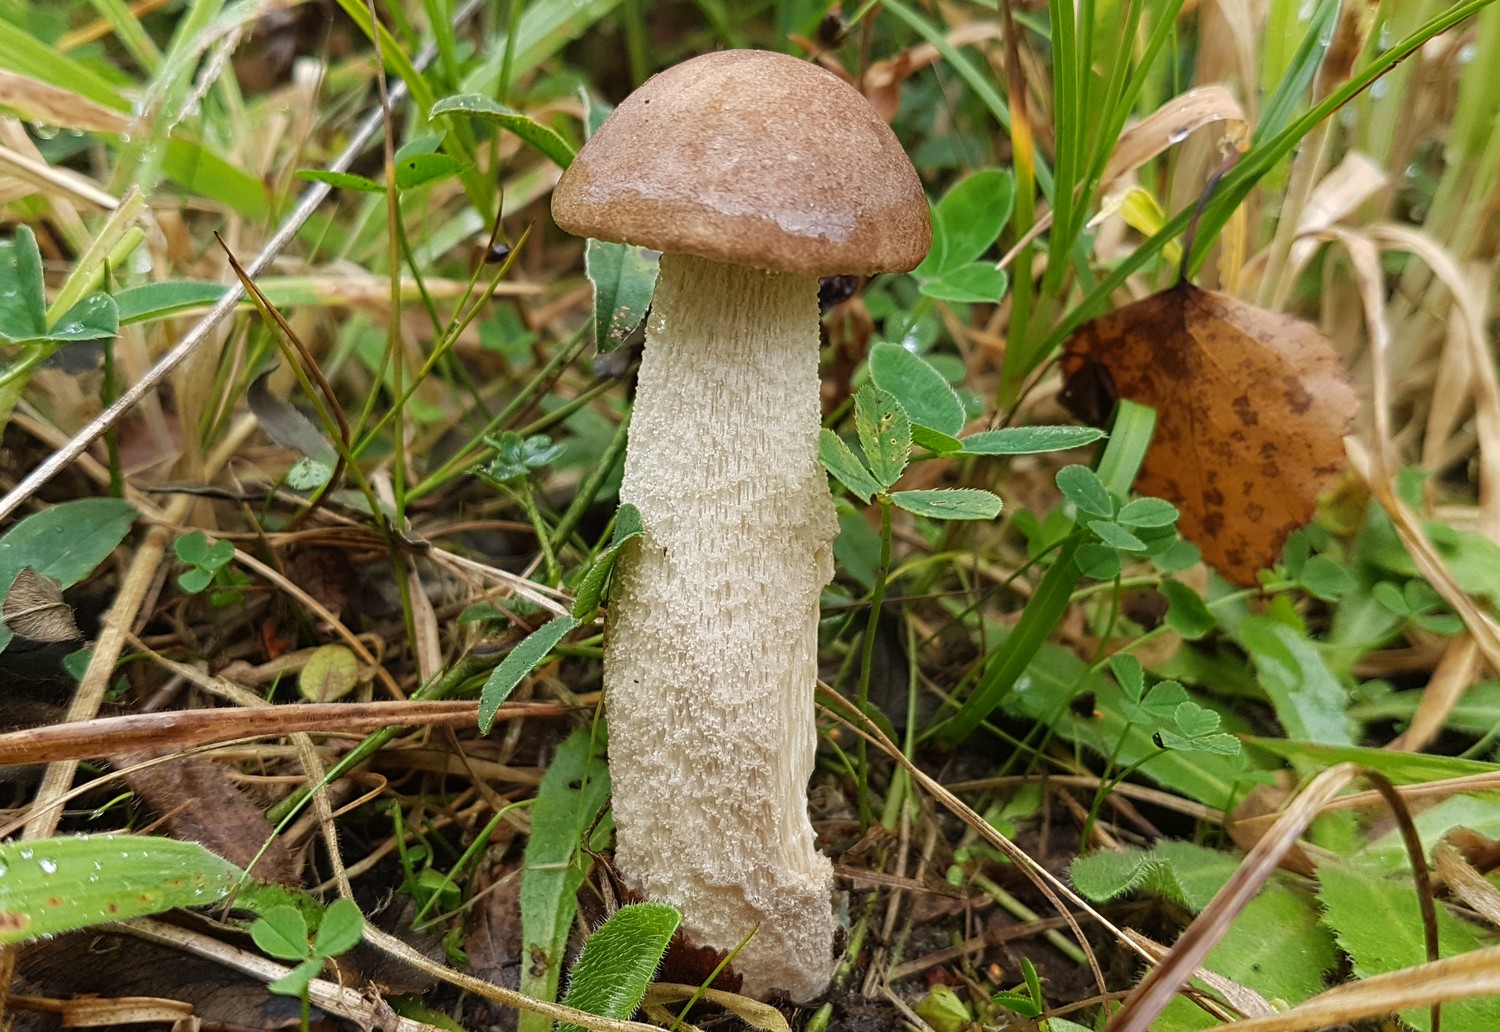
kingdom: Fungi
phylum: Basidiomycota
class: Agaricomycetes
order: Boletales
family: Boletaceae
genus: Leccinum
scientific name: Leccinum cyaneobasileucum
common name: almindelig skælrørhat
